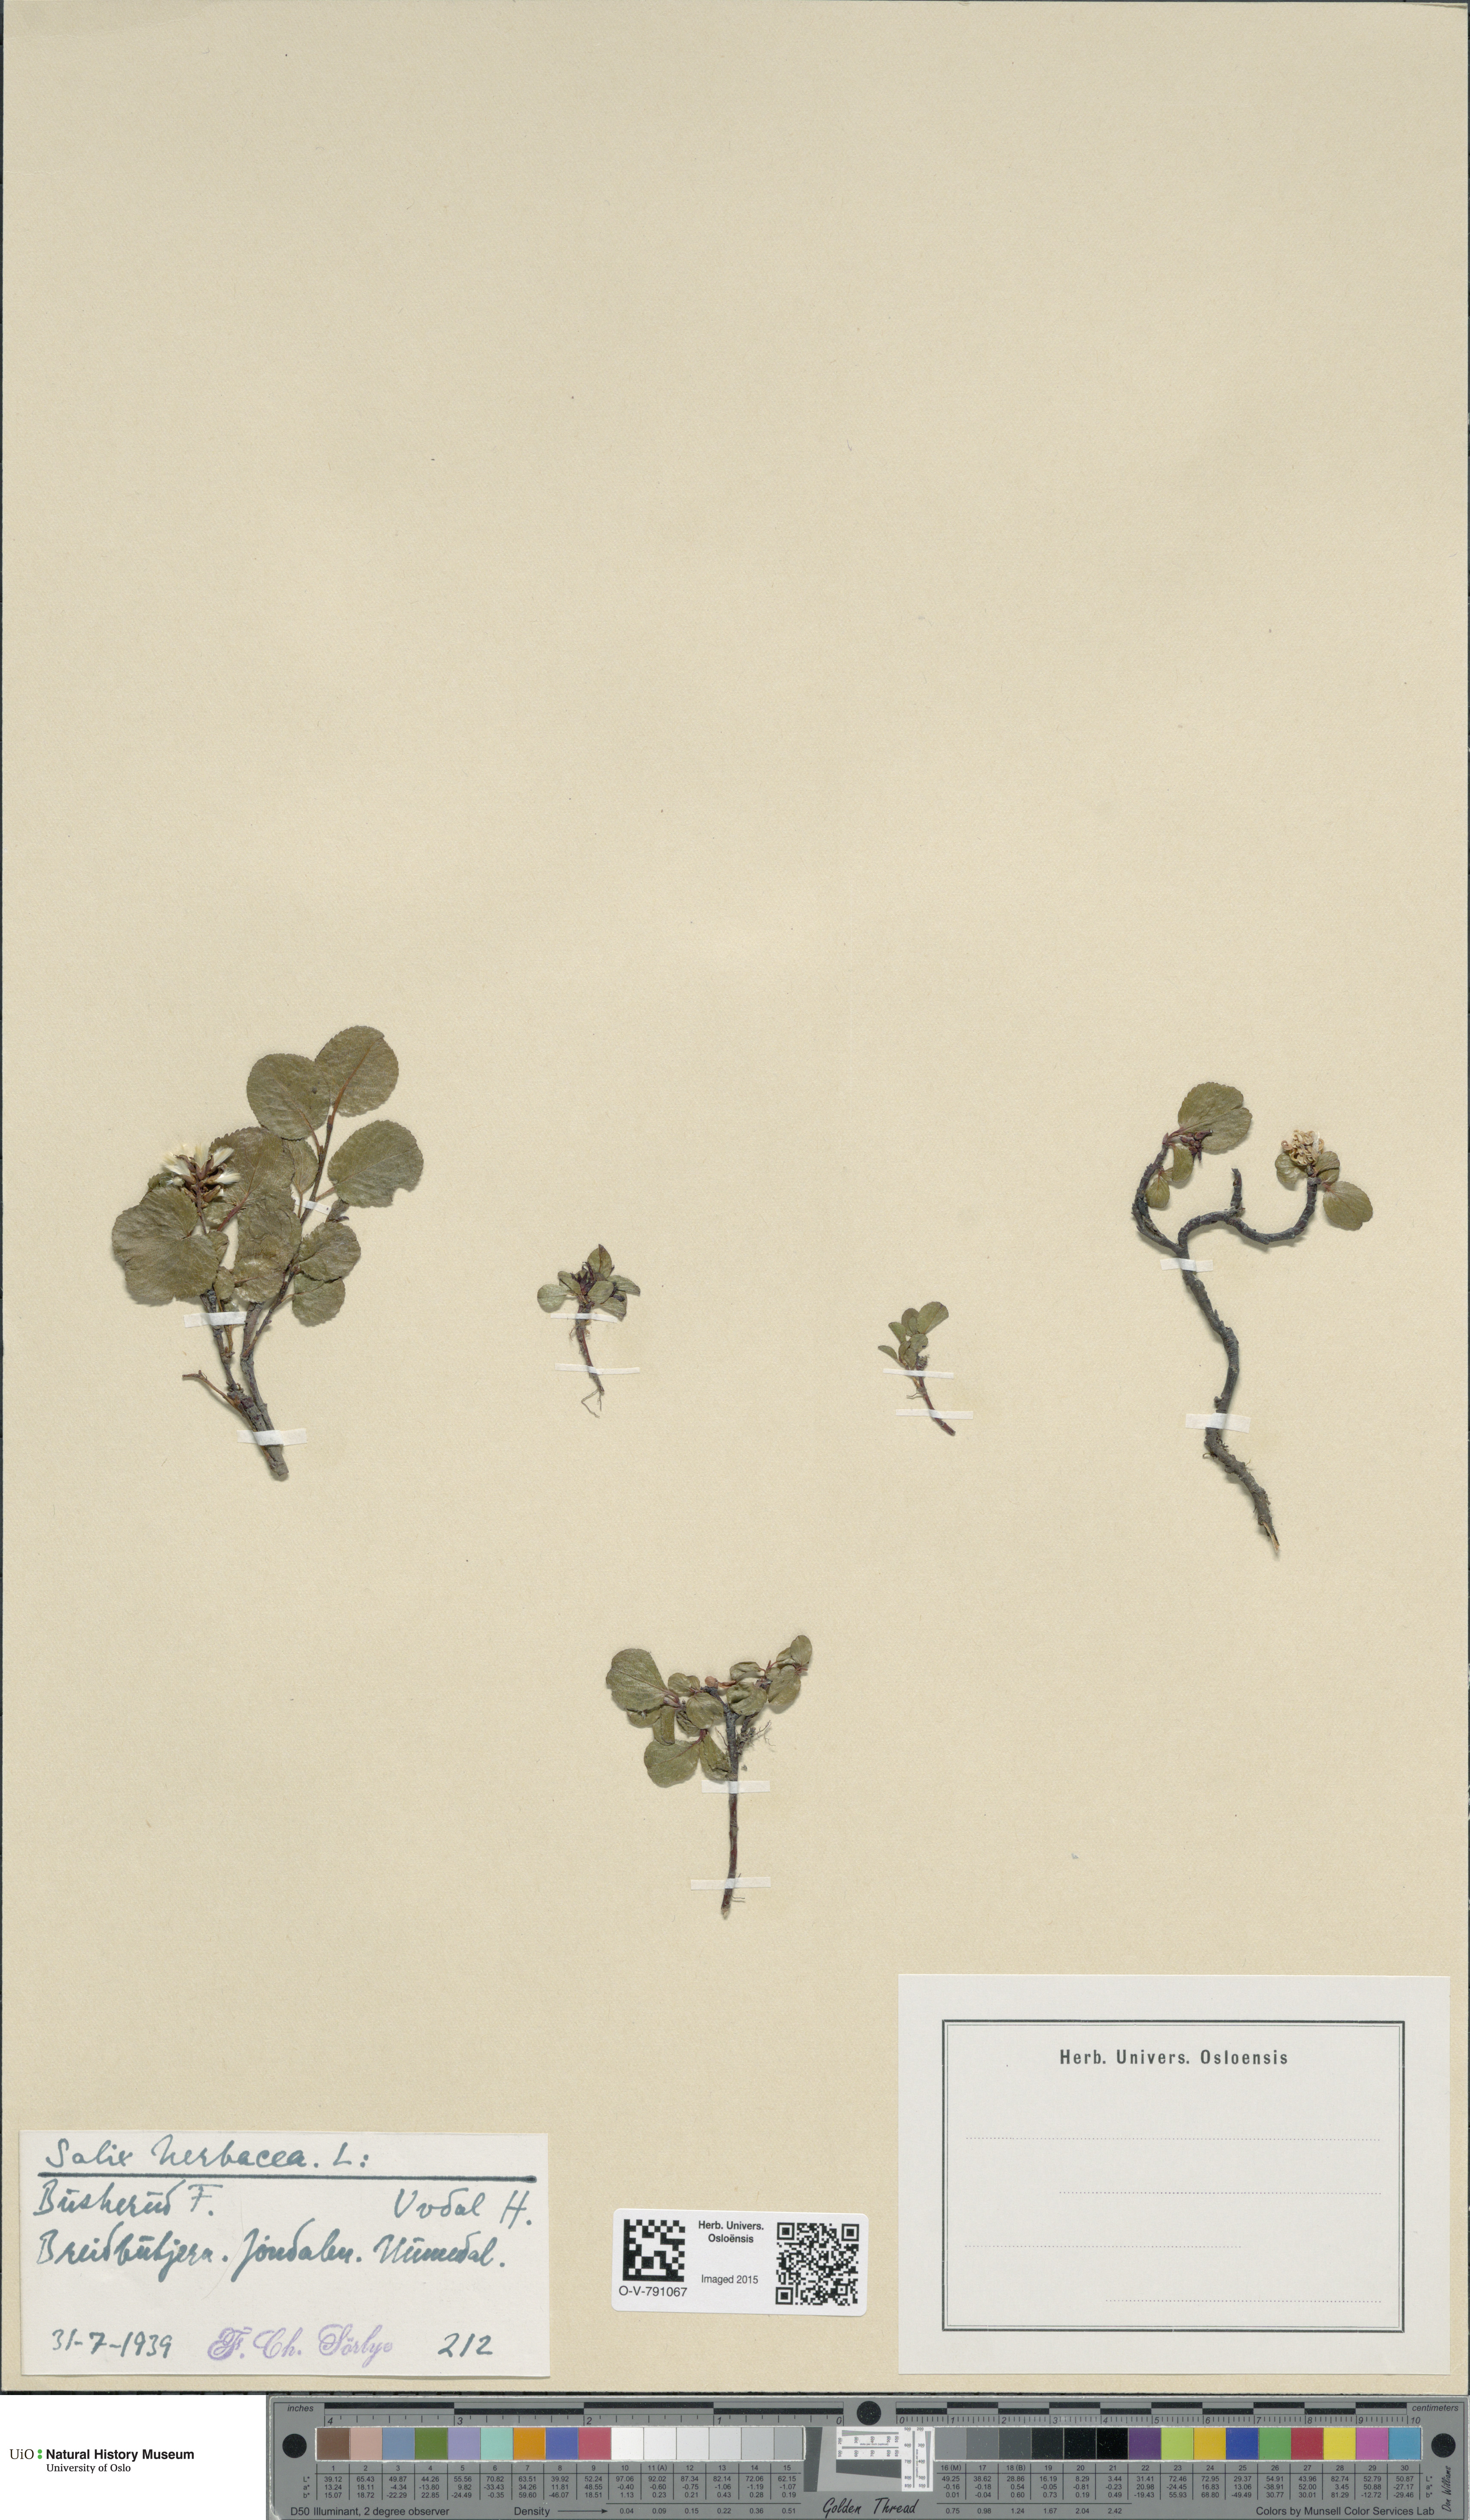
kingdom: Plantae
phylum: Tracheophyta
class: Magnoliopsida
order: Malpighiales
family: Salicaceae
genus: Salix
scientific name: Salix herbacea
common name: Dwarf willow
